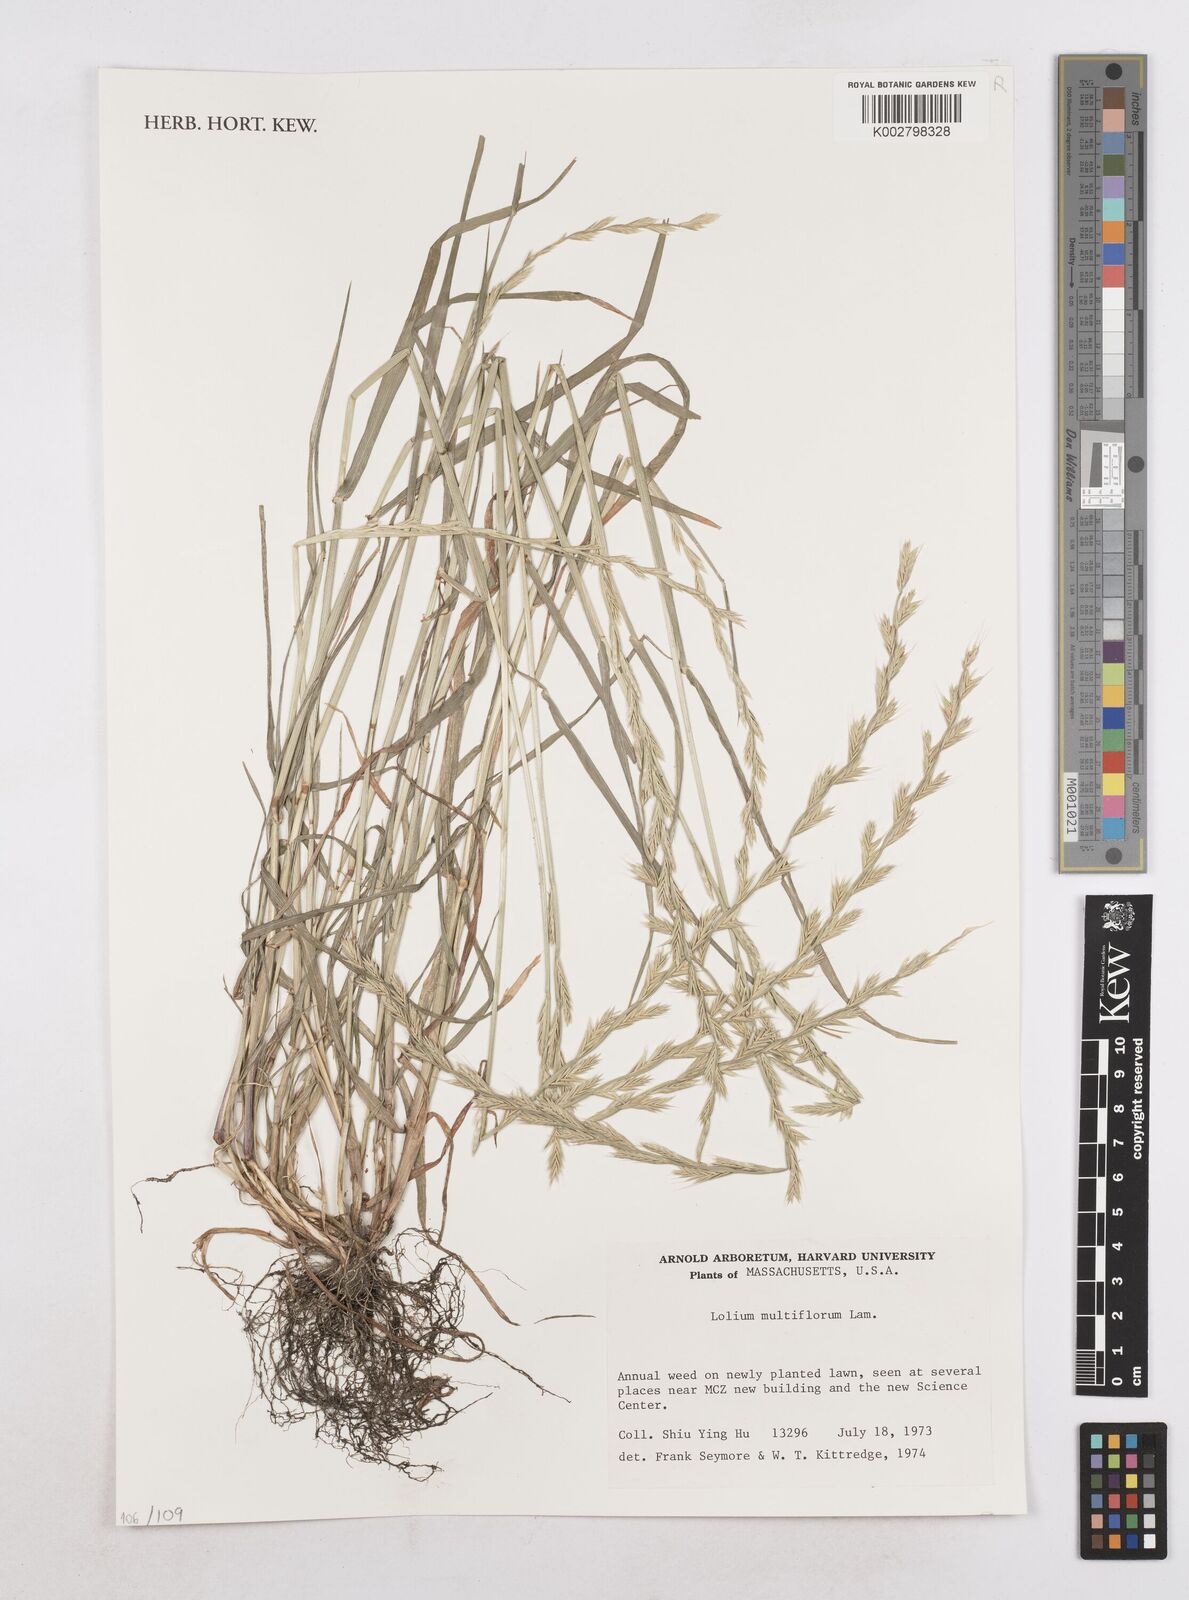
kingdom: Plantae
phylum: Tracheophyta
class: Liliopsida
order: Poales
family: Poaceae
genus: Lolium
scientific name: Lolium multiflorum
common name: Annual ryegrass
